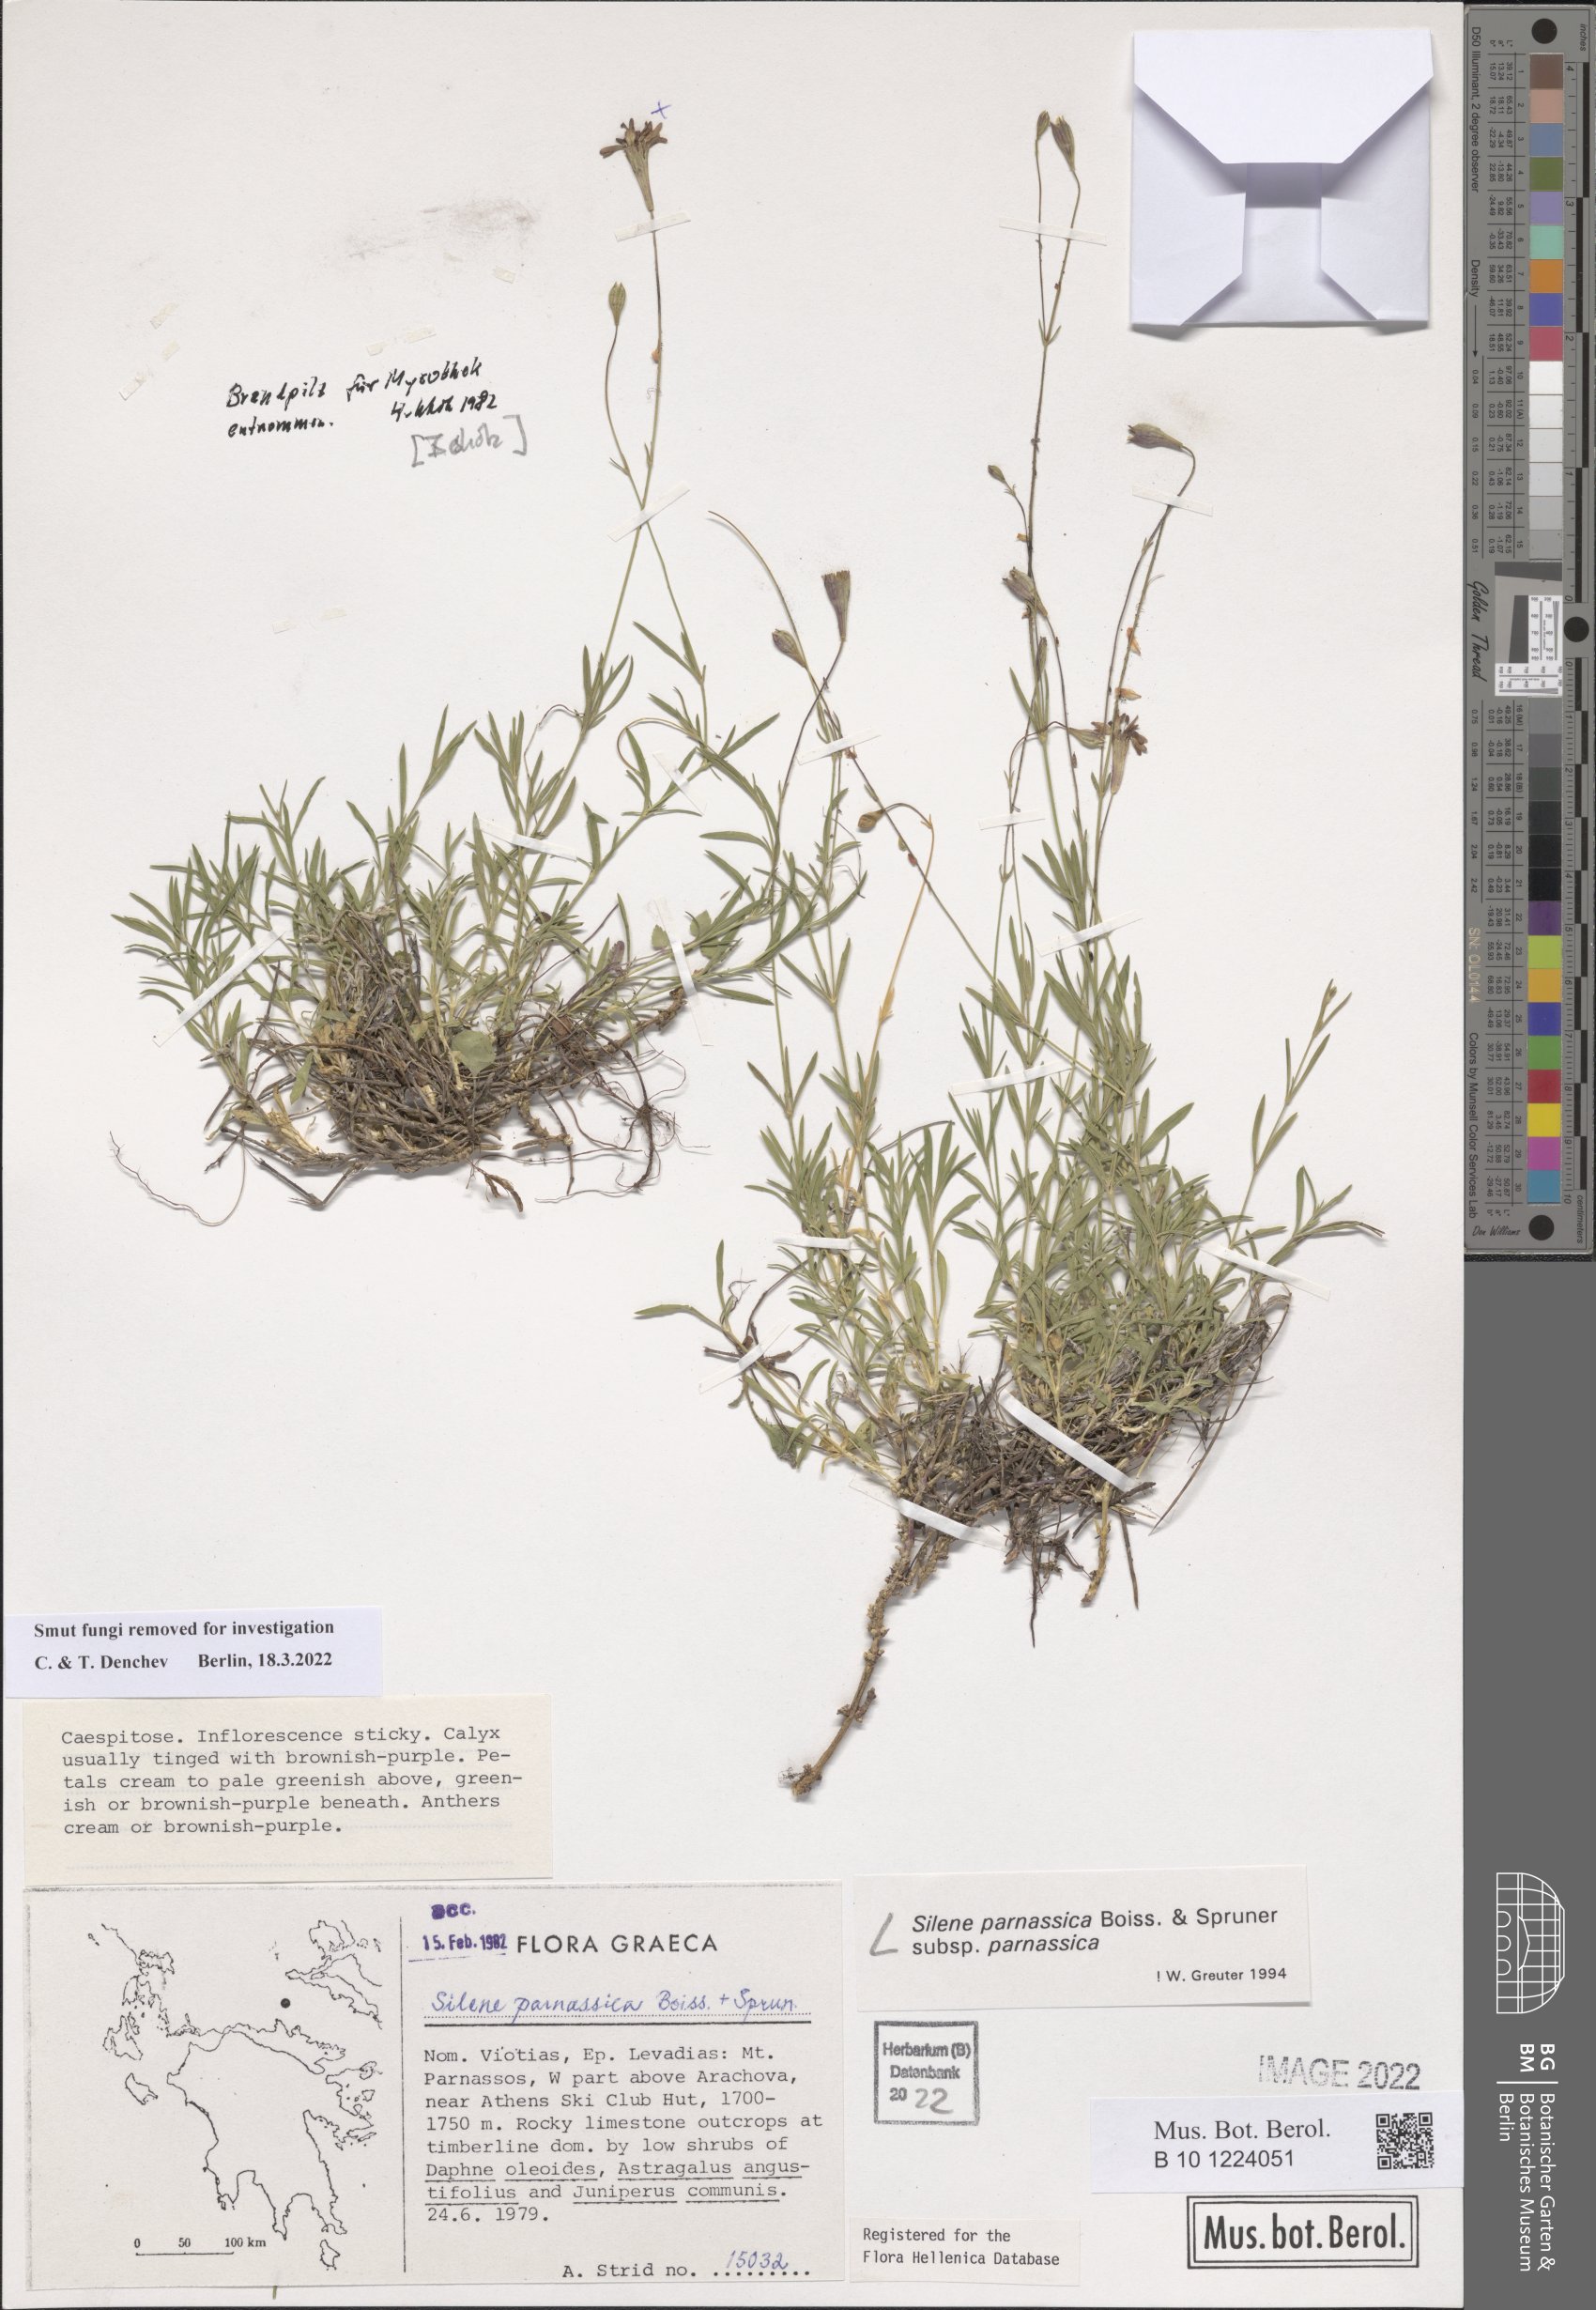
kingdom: Plantae
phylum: Tracheophyta
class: Magnoliopsida
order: Caryophyllales
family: Caryophyllaceae
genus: Silene
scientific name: Silene parnassica
